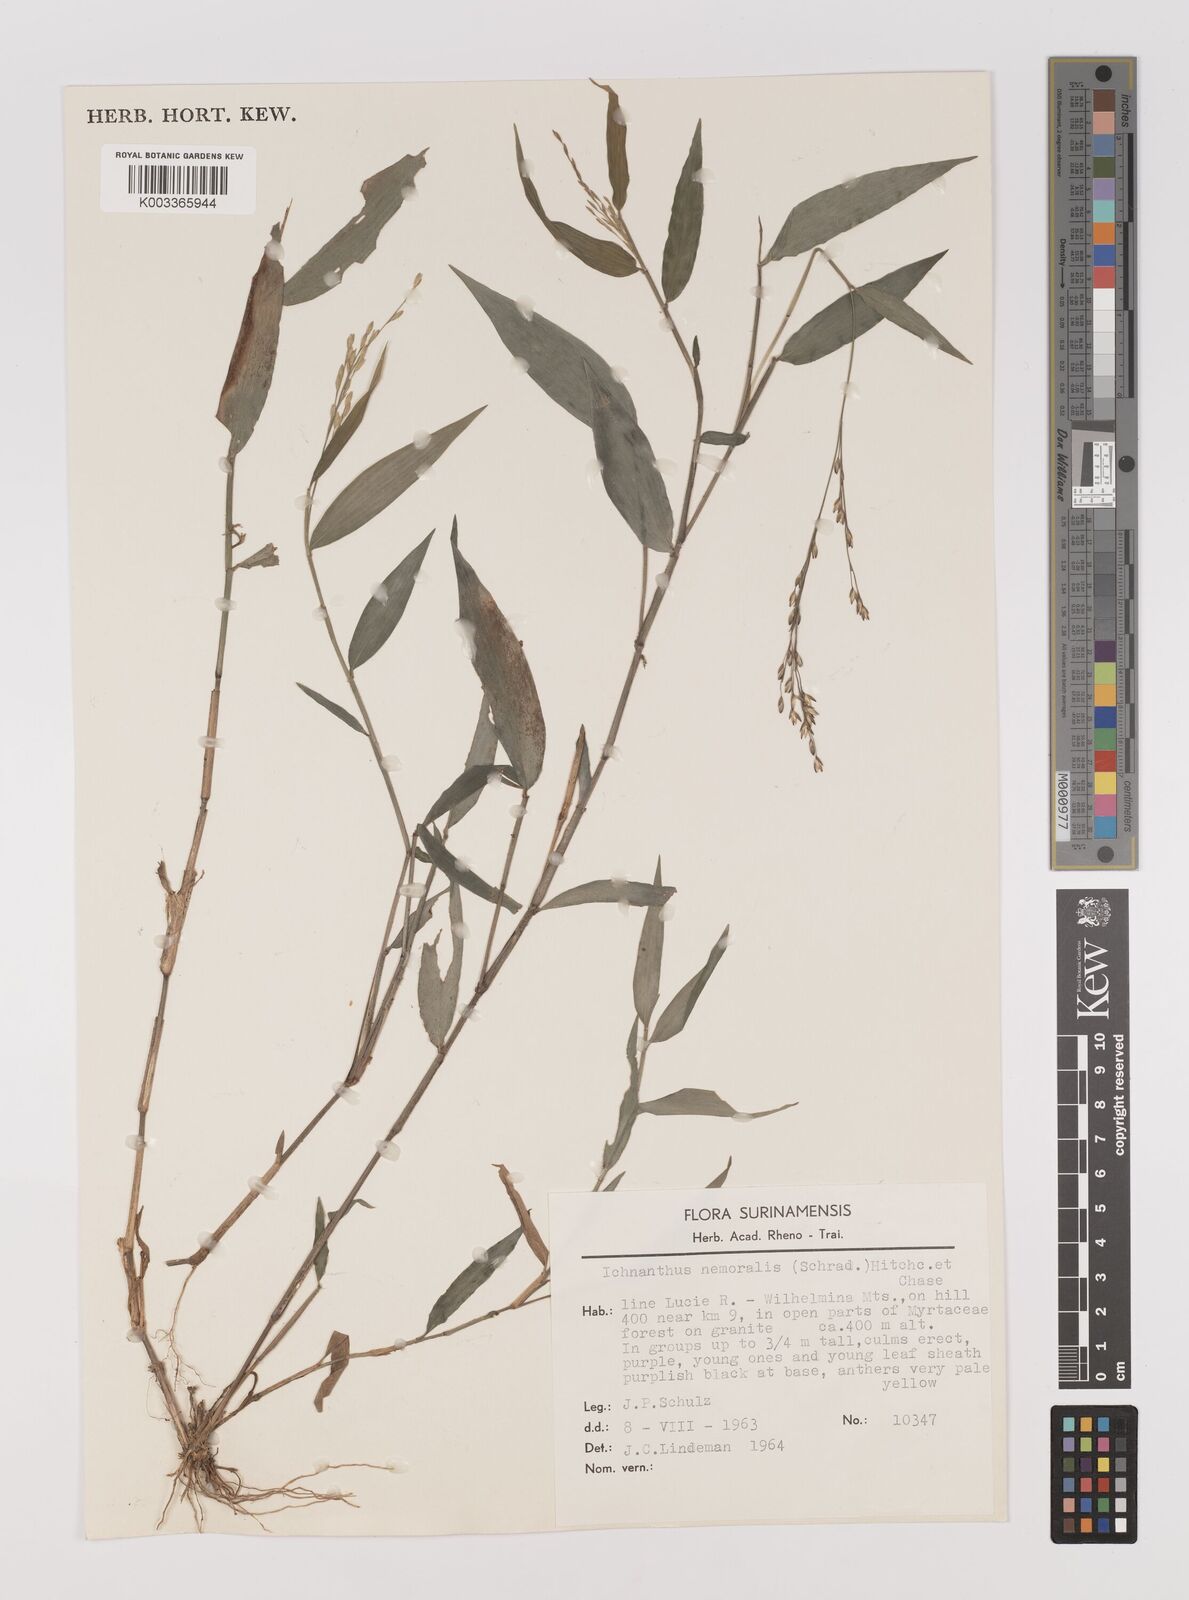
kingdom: Plantae
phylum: Tracheophyta
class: Liliopsida
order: Poales
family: Poaceae
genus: Ichnanthus
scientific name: Ichnanthus nemoralis
